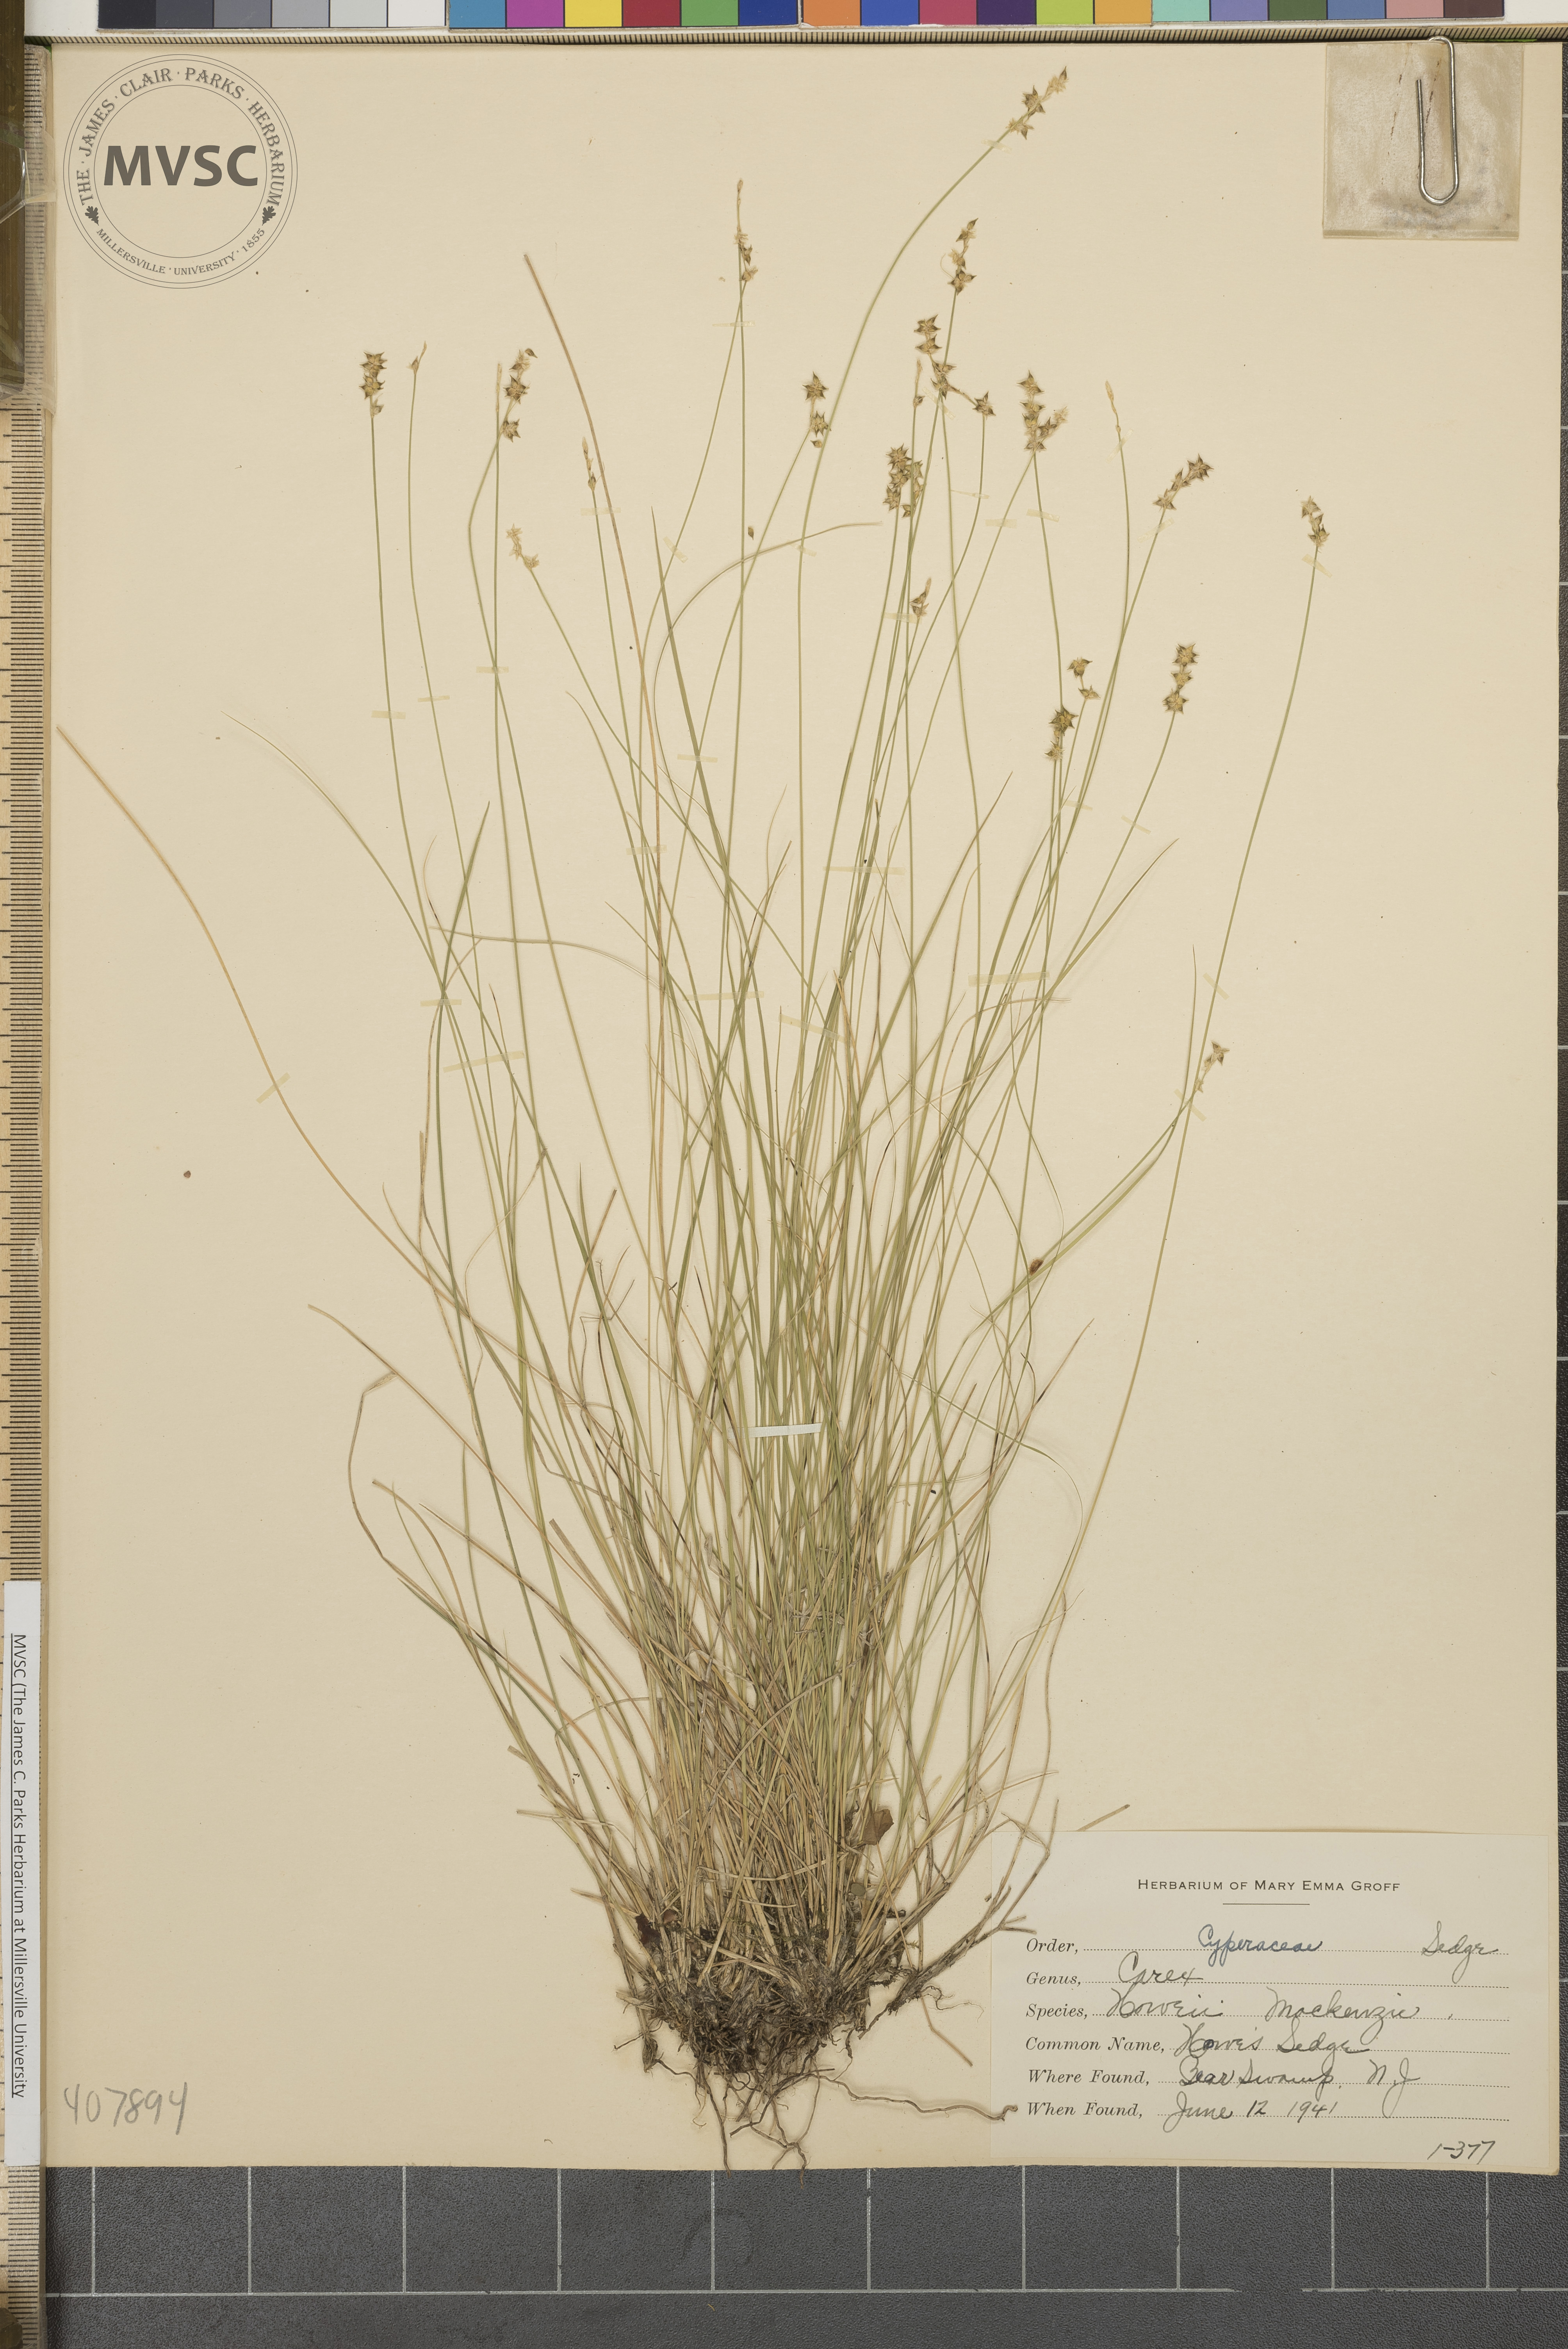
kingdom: Plantae
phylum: Tracheophyta
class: Liliopsida
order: Poales
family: Cyperaceae
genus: Carex
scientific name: Carex atlantica
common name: Howe's Sedge
